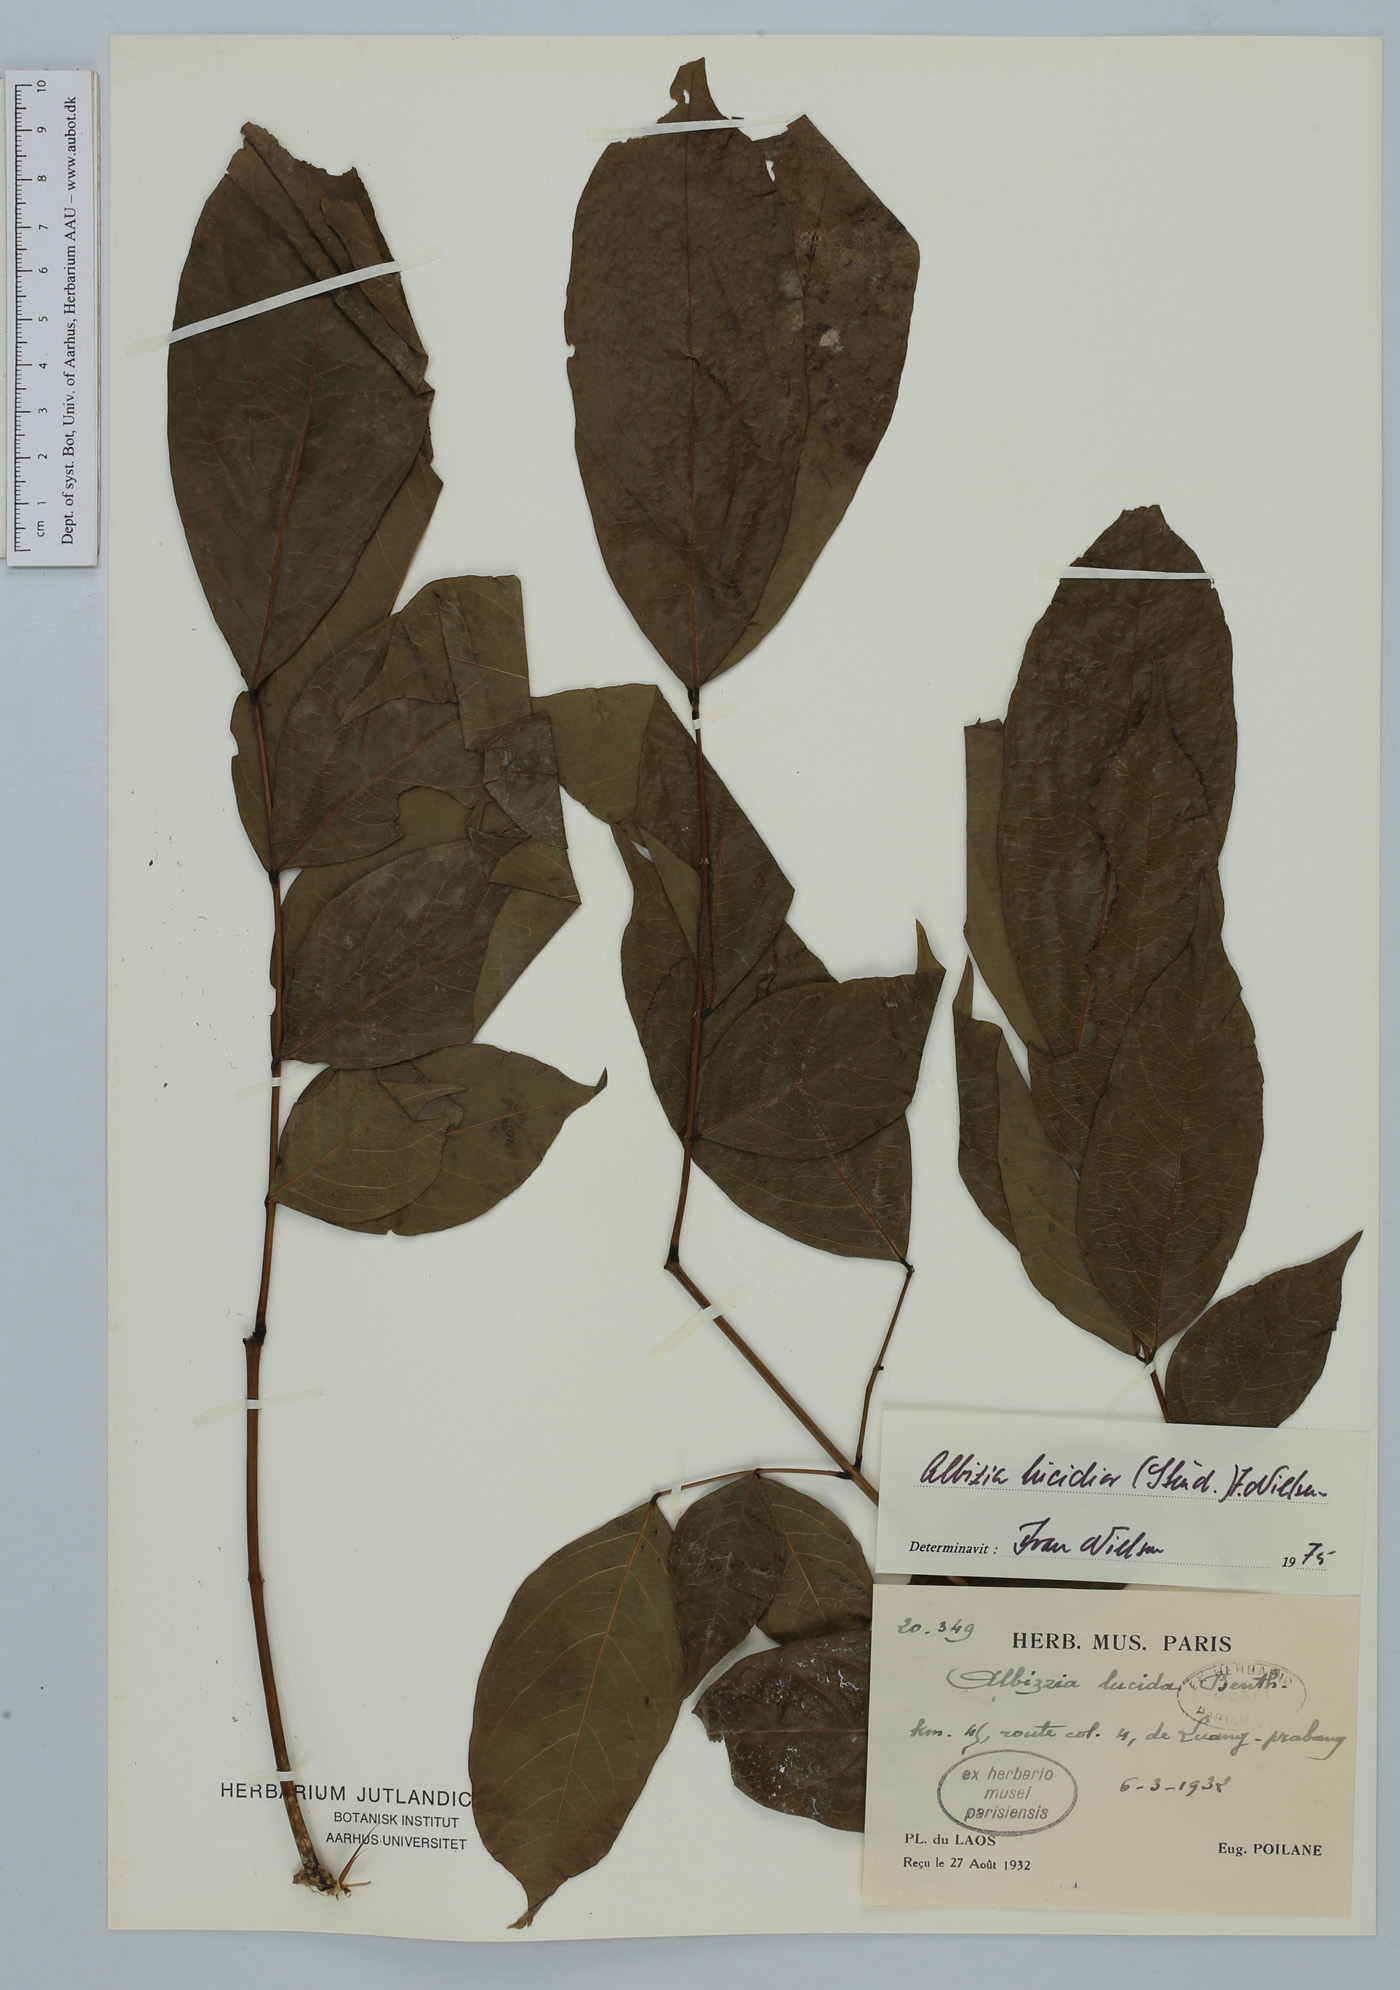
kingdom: Plantae
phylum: Tracheophyta
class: Magnoliopsida
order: Fabales
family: Fabaceae
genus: Albizia
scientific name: Albizia lucidior
